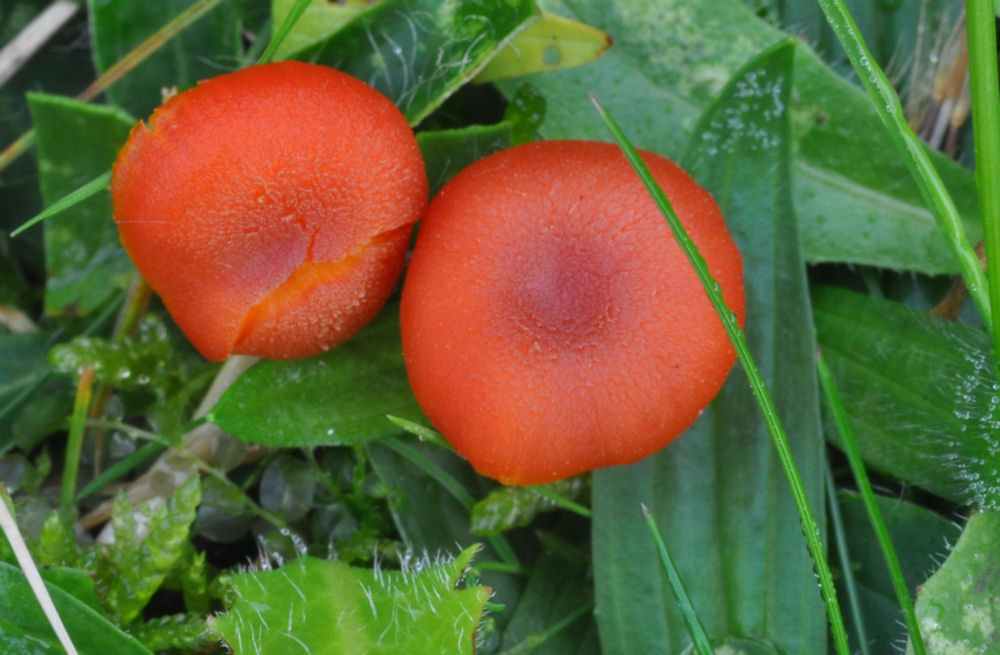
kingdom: Fungi
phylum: Basidiomycota
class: Agaricomycetes
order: Agaricales
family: Hygrophoraceae
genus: Hygrocybe
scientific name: Hygrocybe miniata
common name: mønje-vokshat
